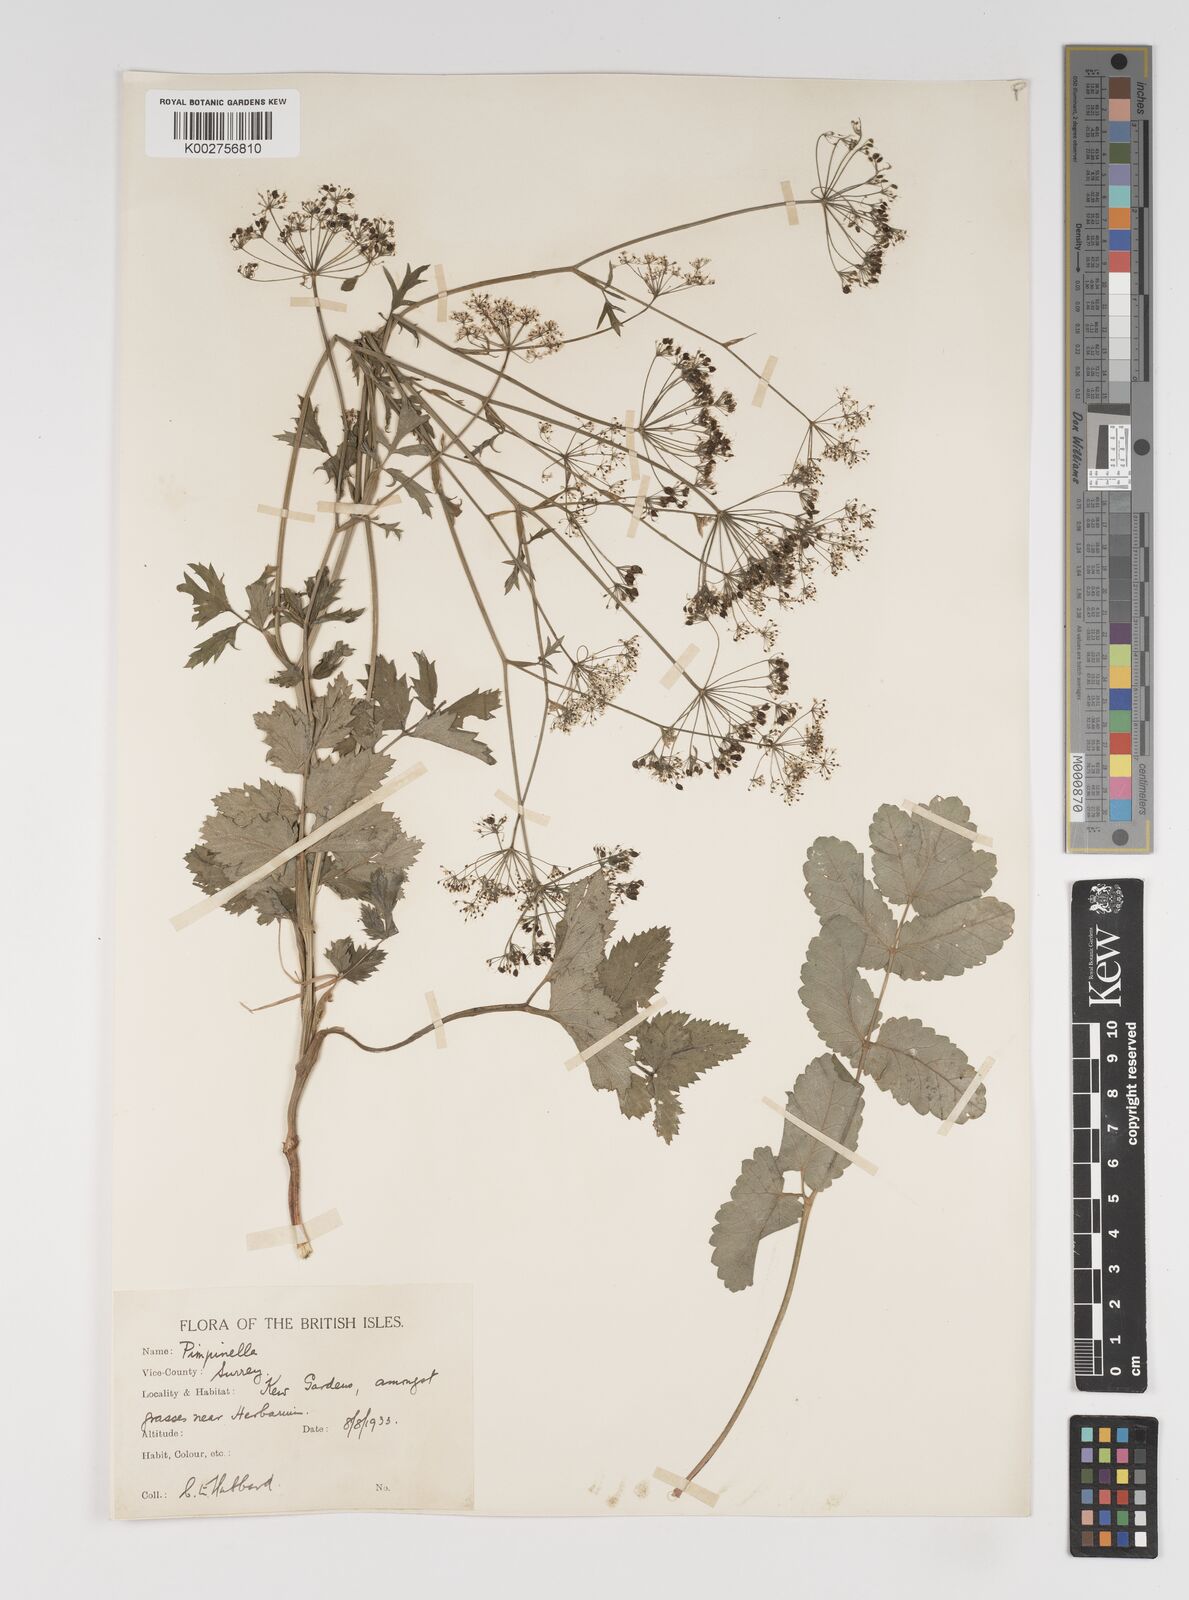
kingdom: Plantae
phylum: Tracheophyta
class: Magnoliopsida
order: Apiales
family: Apiaceae
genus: Pimpinella
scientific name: Pimpinella major
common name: Greater burnet-saxifrage
